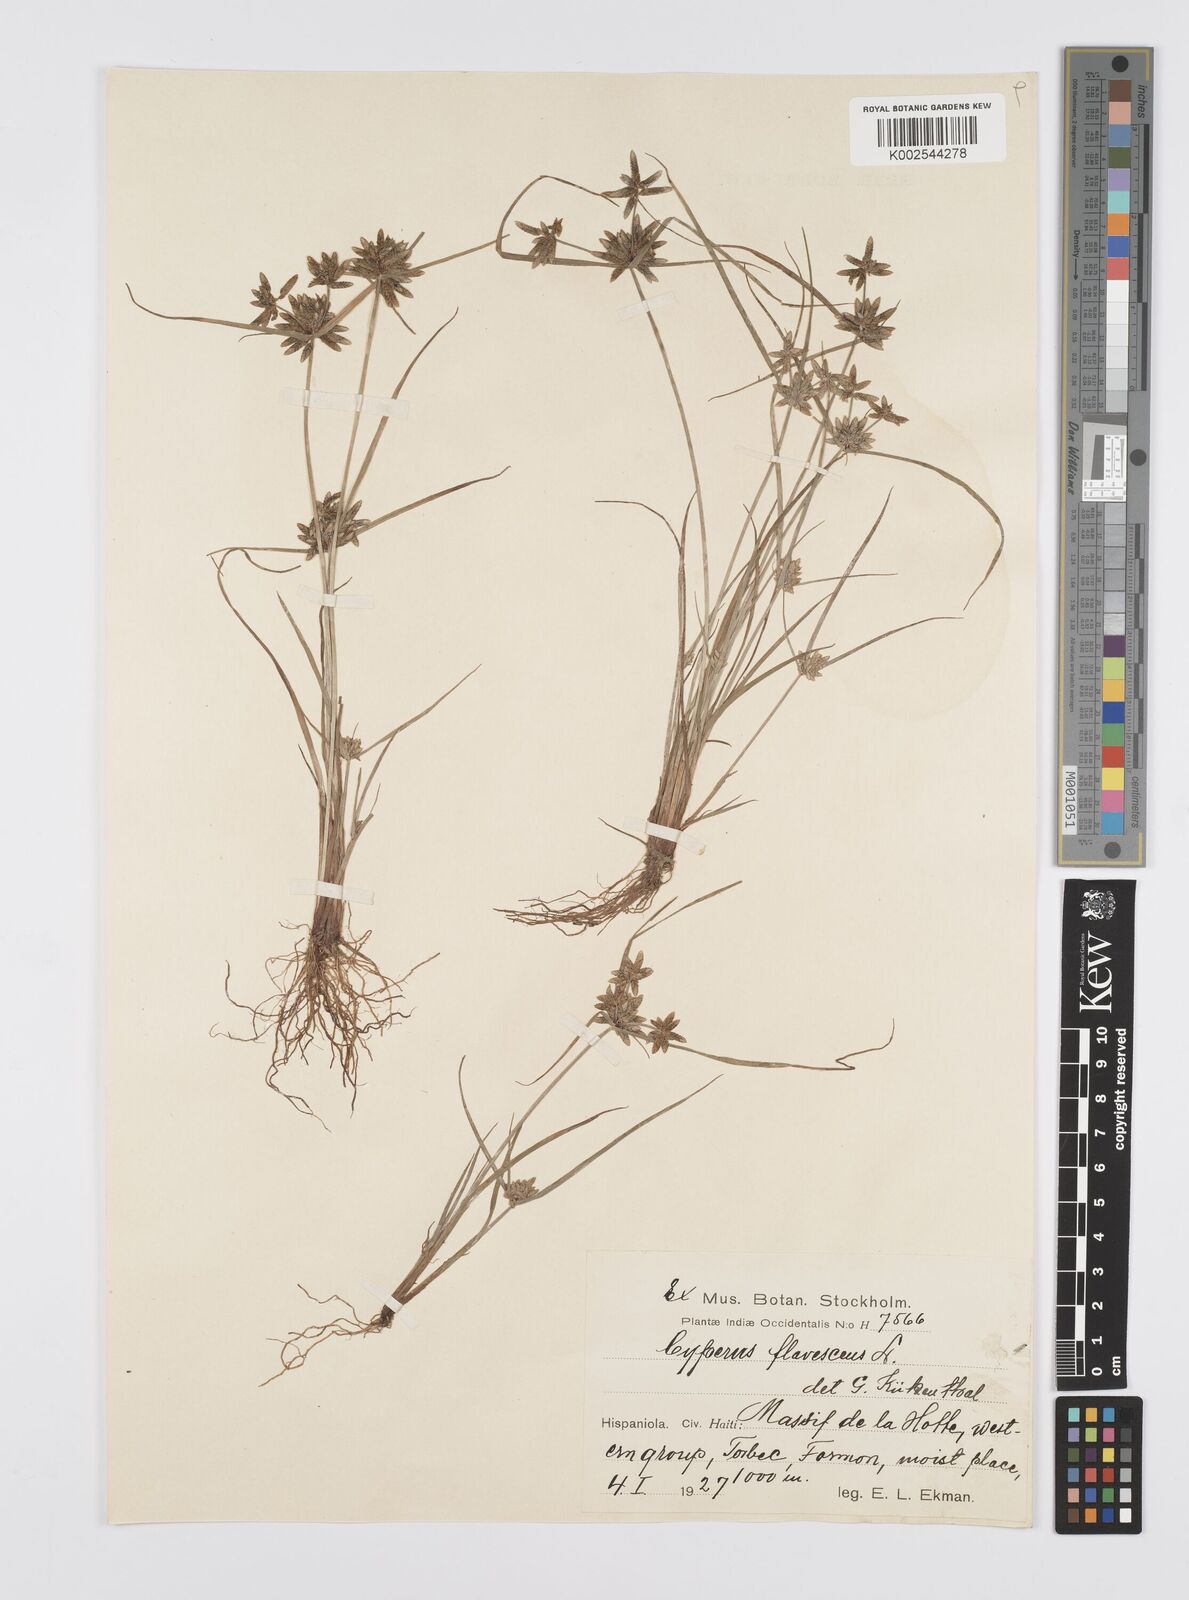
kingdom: Plantae
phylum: Tracheophyta
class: Liliopsida
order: Poales
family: Cyperaceae
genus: Cyperus
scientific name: Cyperus flavescens
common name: Yellow galingale
